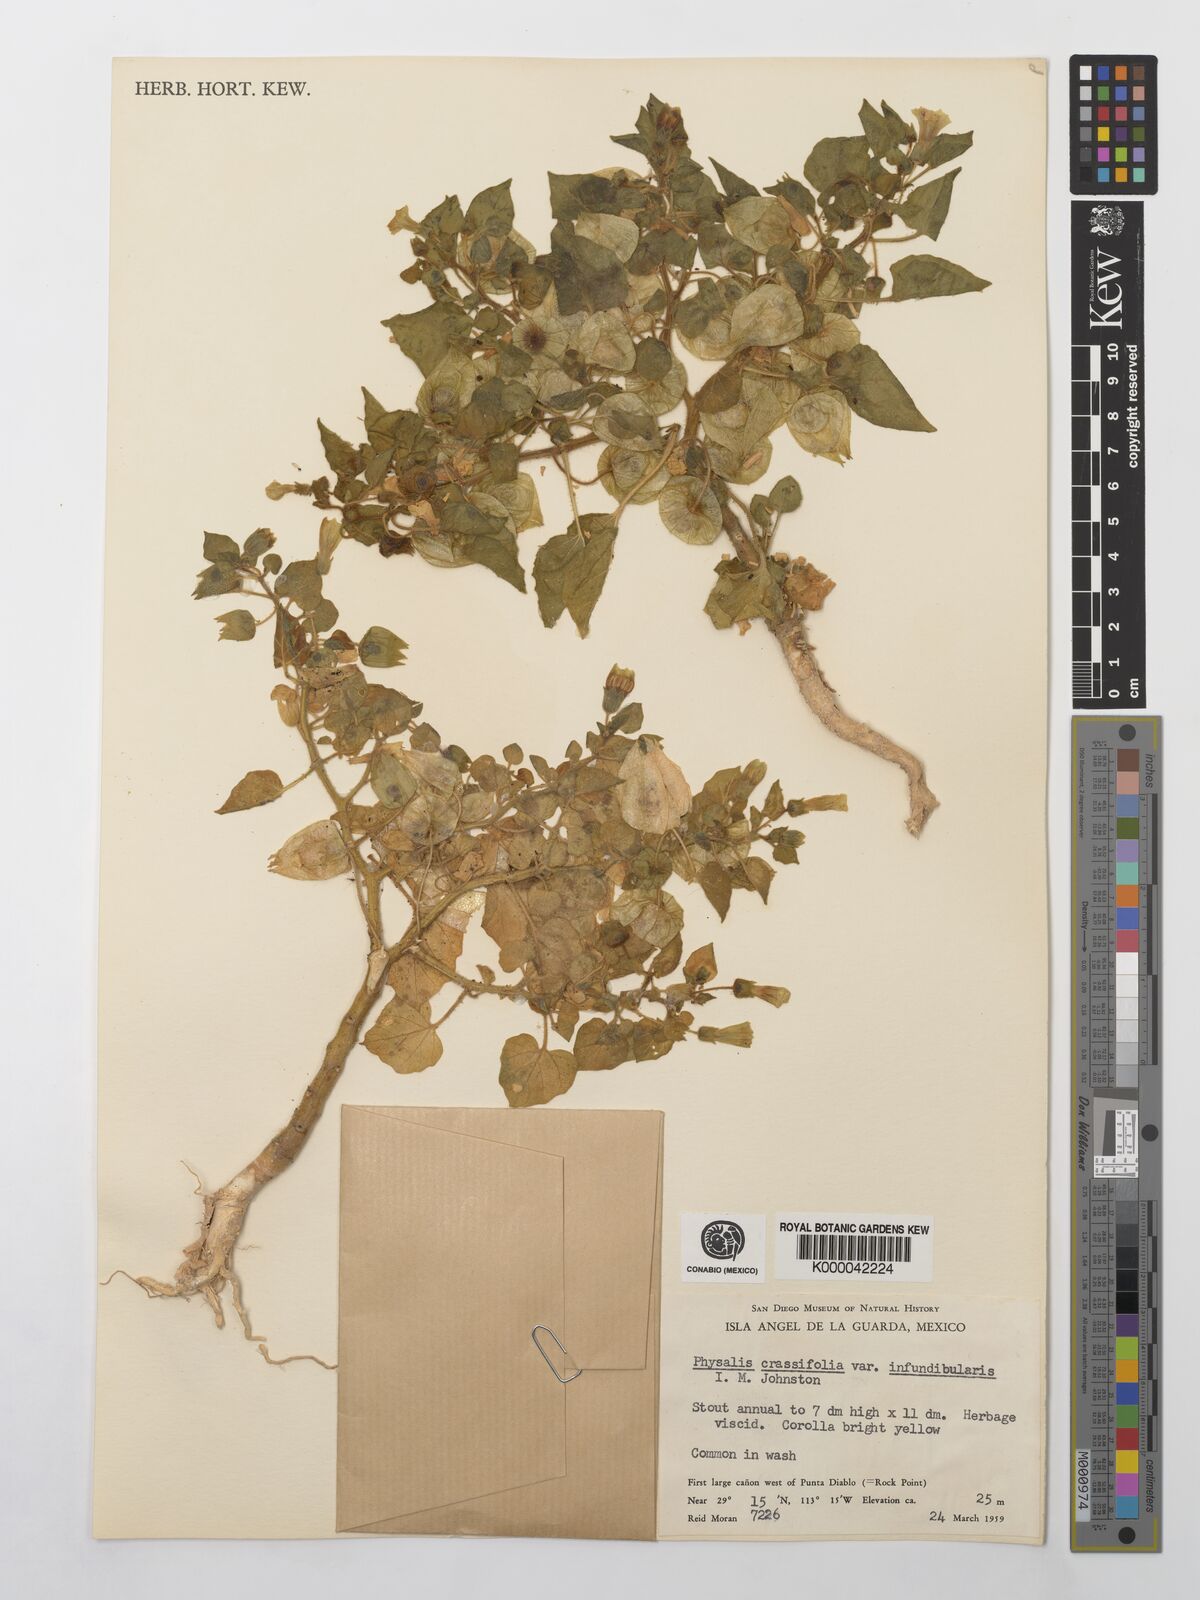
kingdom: Plantae
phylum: Tracheophyta
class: Magnoliopsida
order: Solanales
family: Solanaceae
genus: Physalis
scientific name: Physalis crassifolia
